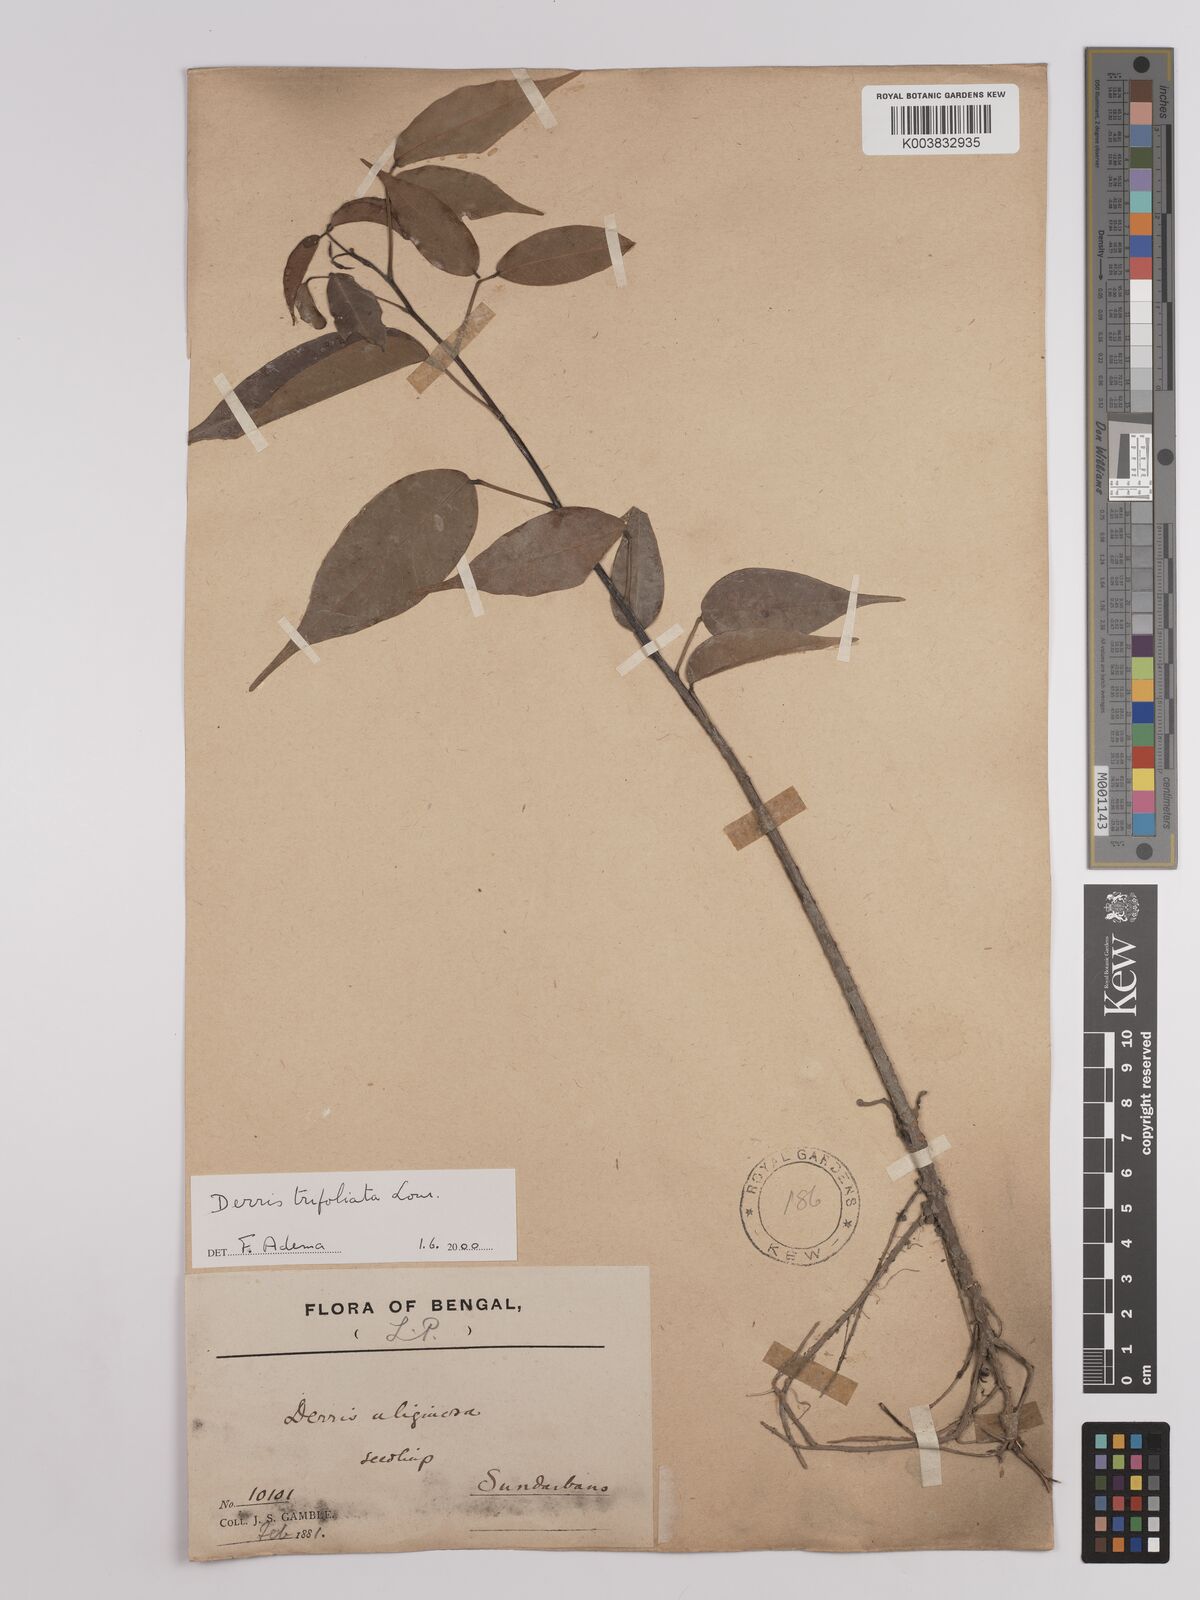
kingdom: Plantae
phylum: Tracheophyta
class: Magnoliopsida
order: Fabales
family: Fabaceae
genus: Derris
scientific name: Derris trifoliata
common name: Three-leaf derris
